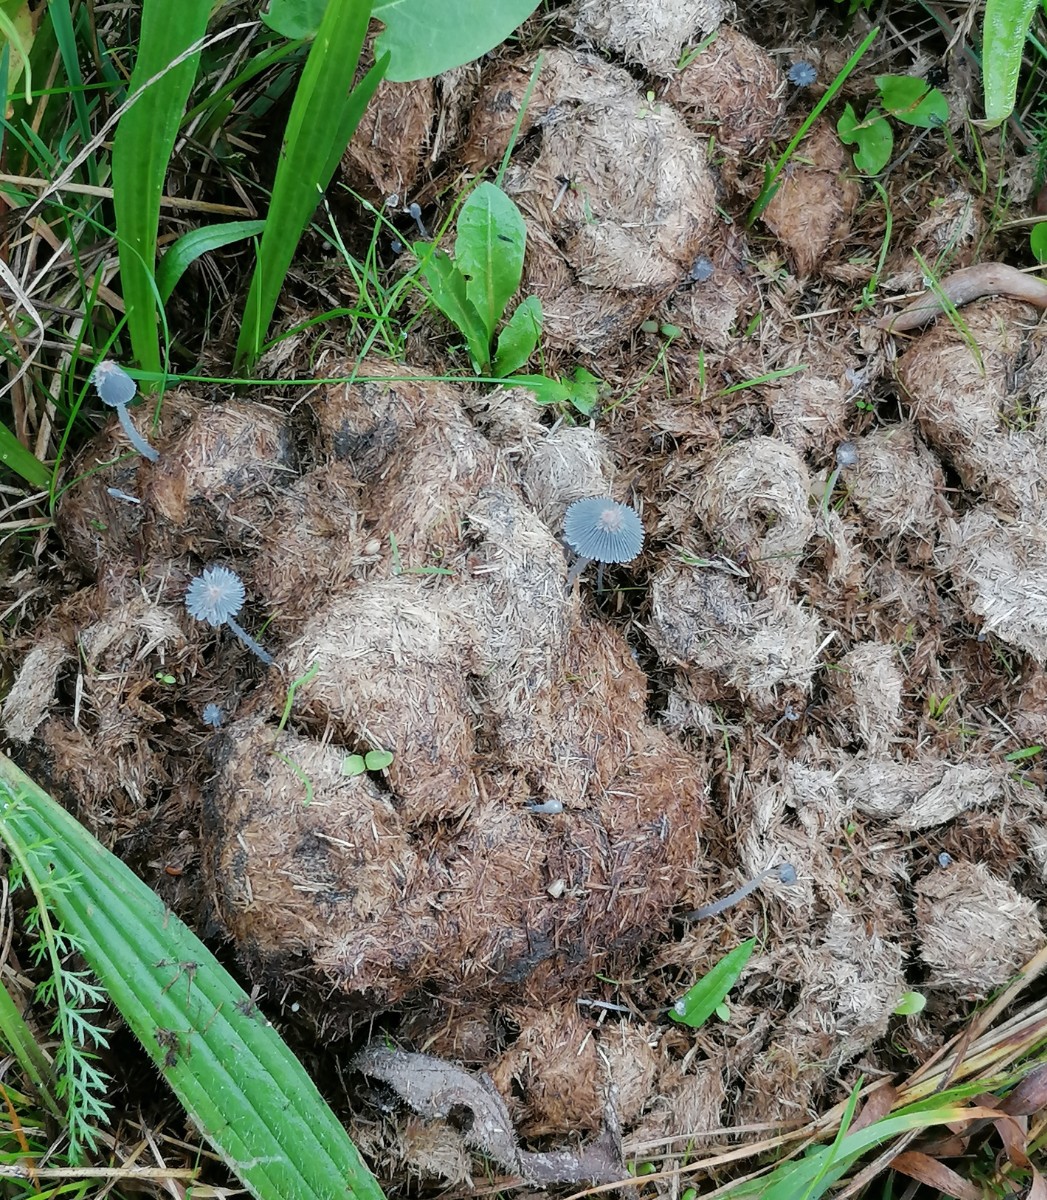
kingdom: Fungi
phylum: Basidiomycota
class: Agaricomycetes
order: Agaricales
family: Psathyrellaceae
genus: Coprinopsis
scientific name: Coprinopsis
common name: blækhat
